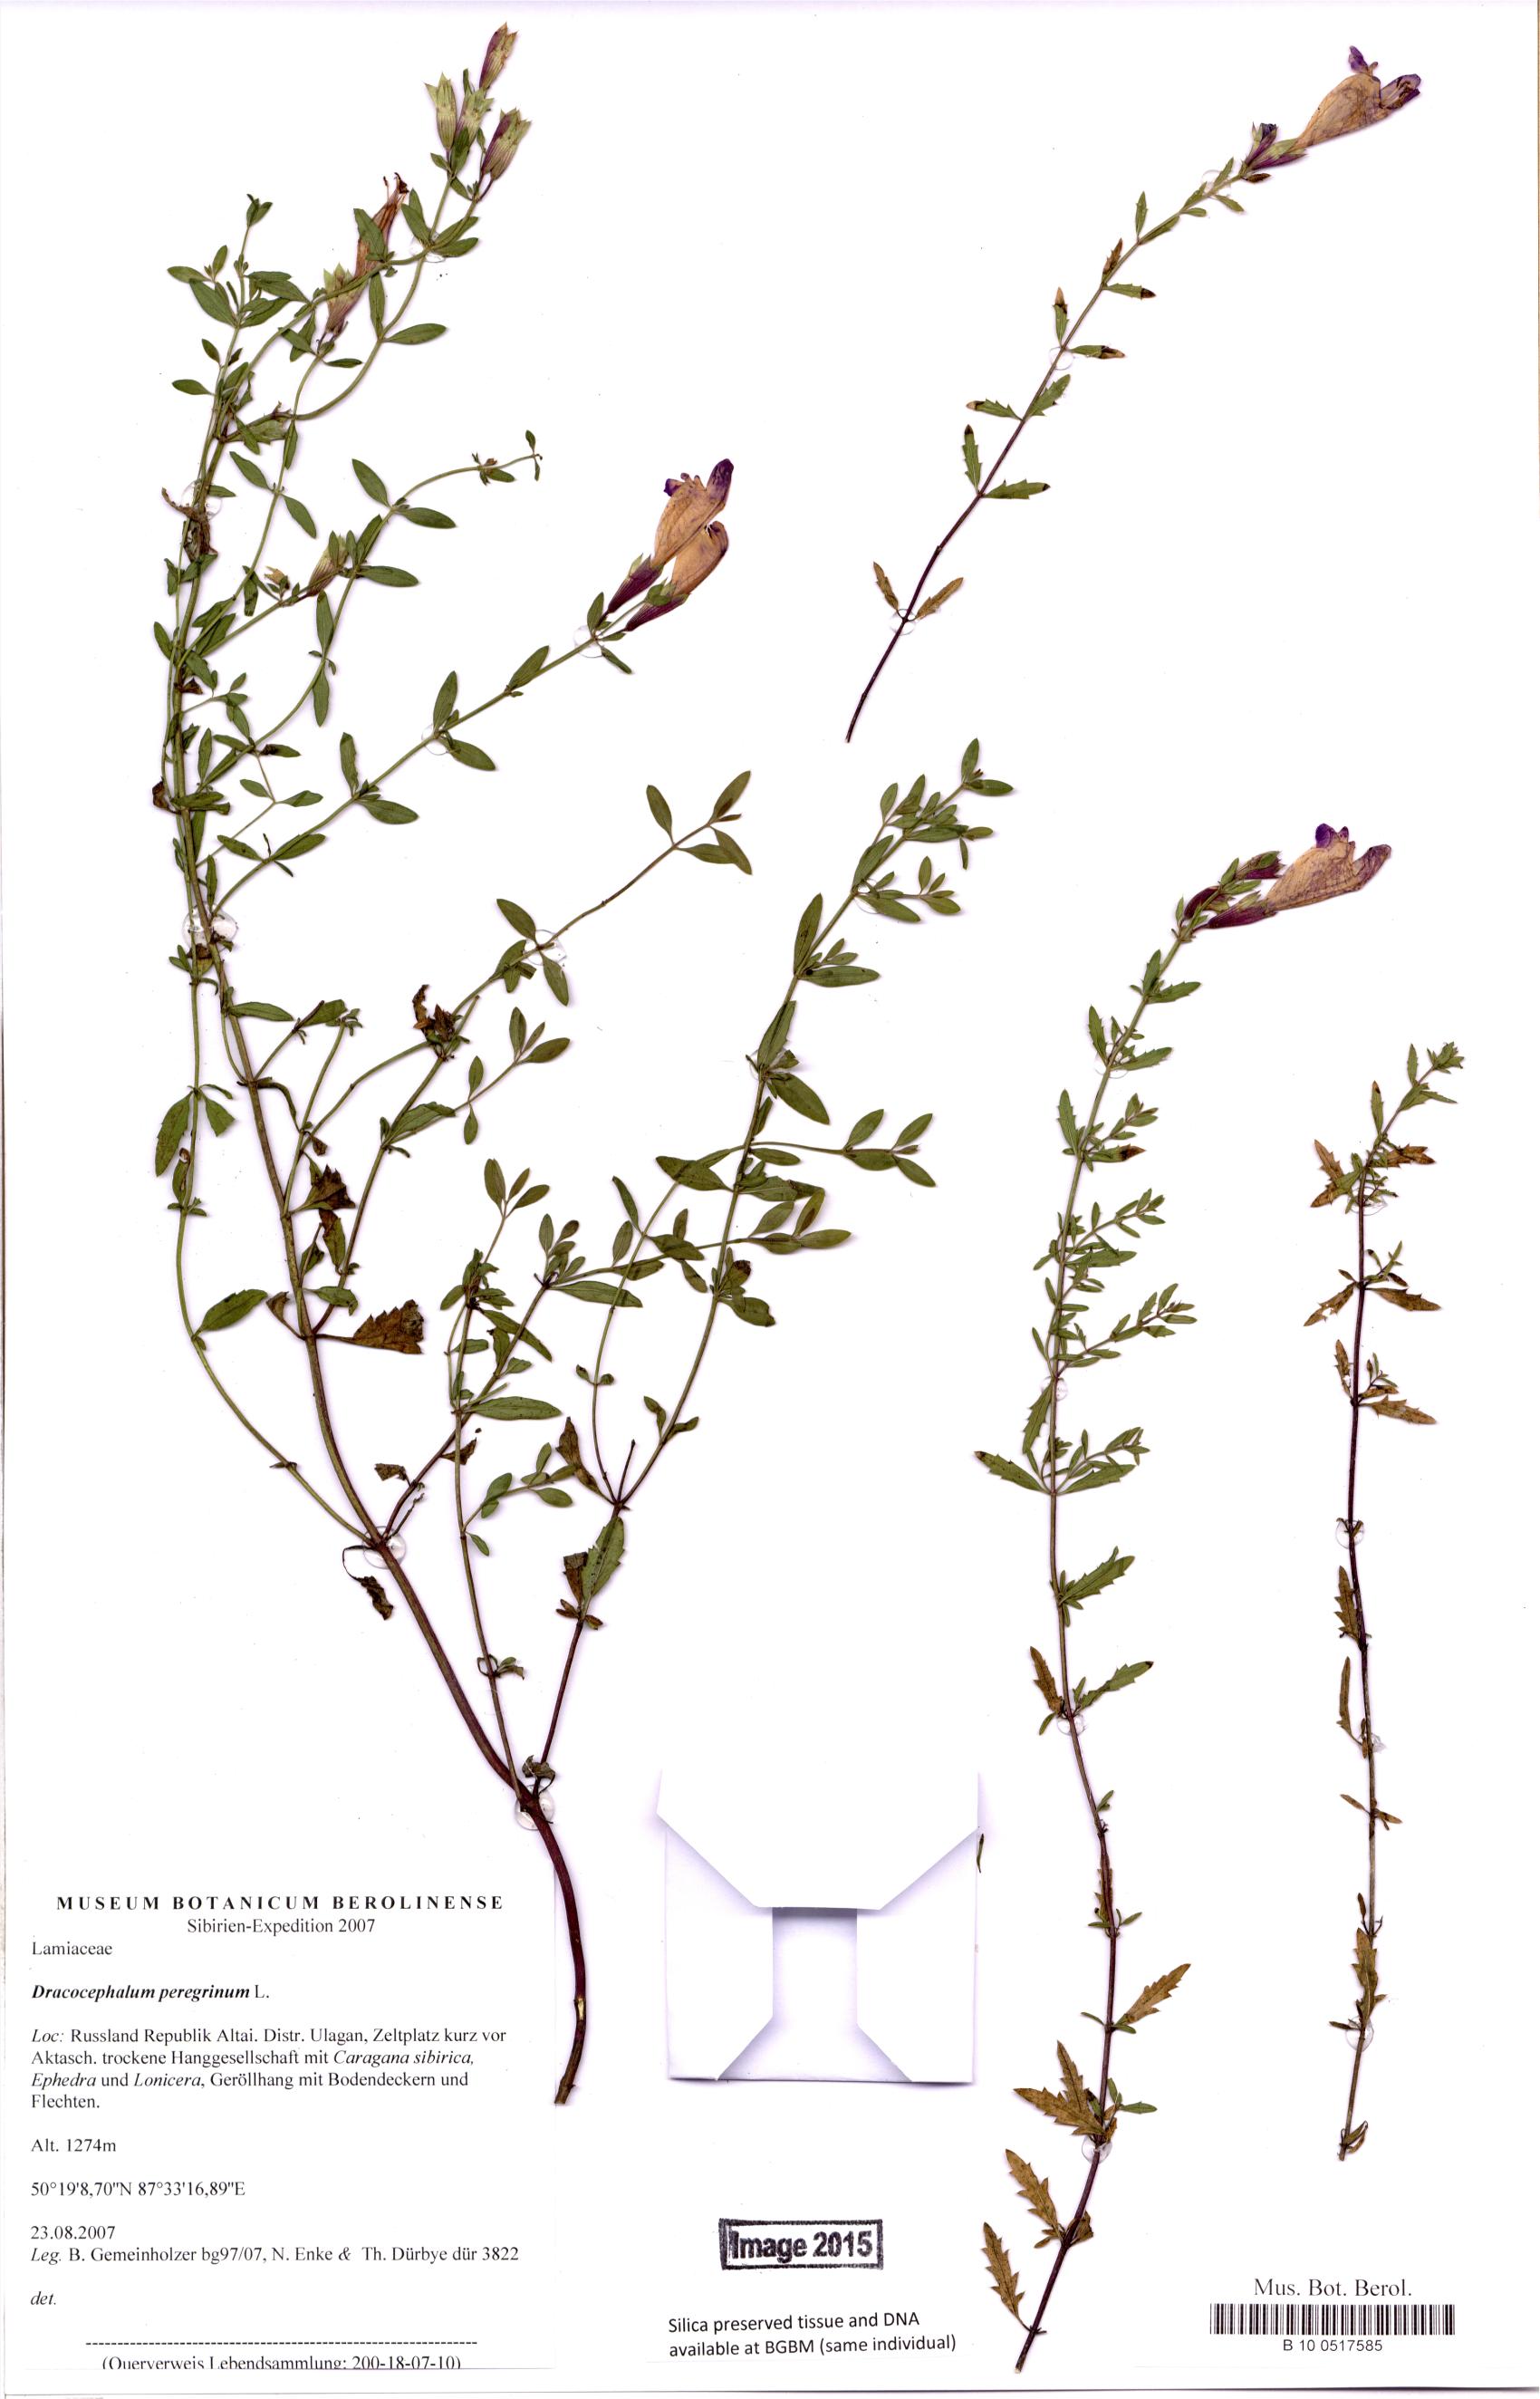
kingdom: Plantae
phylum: Tracheophyta
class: Magnoliopsida
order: Lamiales
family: Lamiaceae
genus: Dracocephalum
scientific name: Dracocephalum peregrinum
